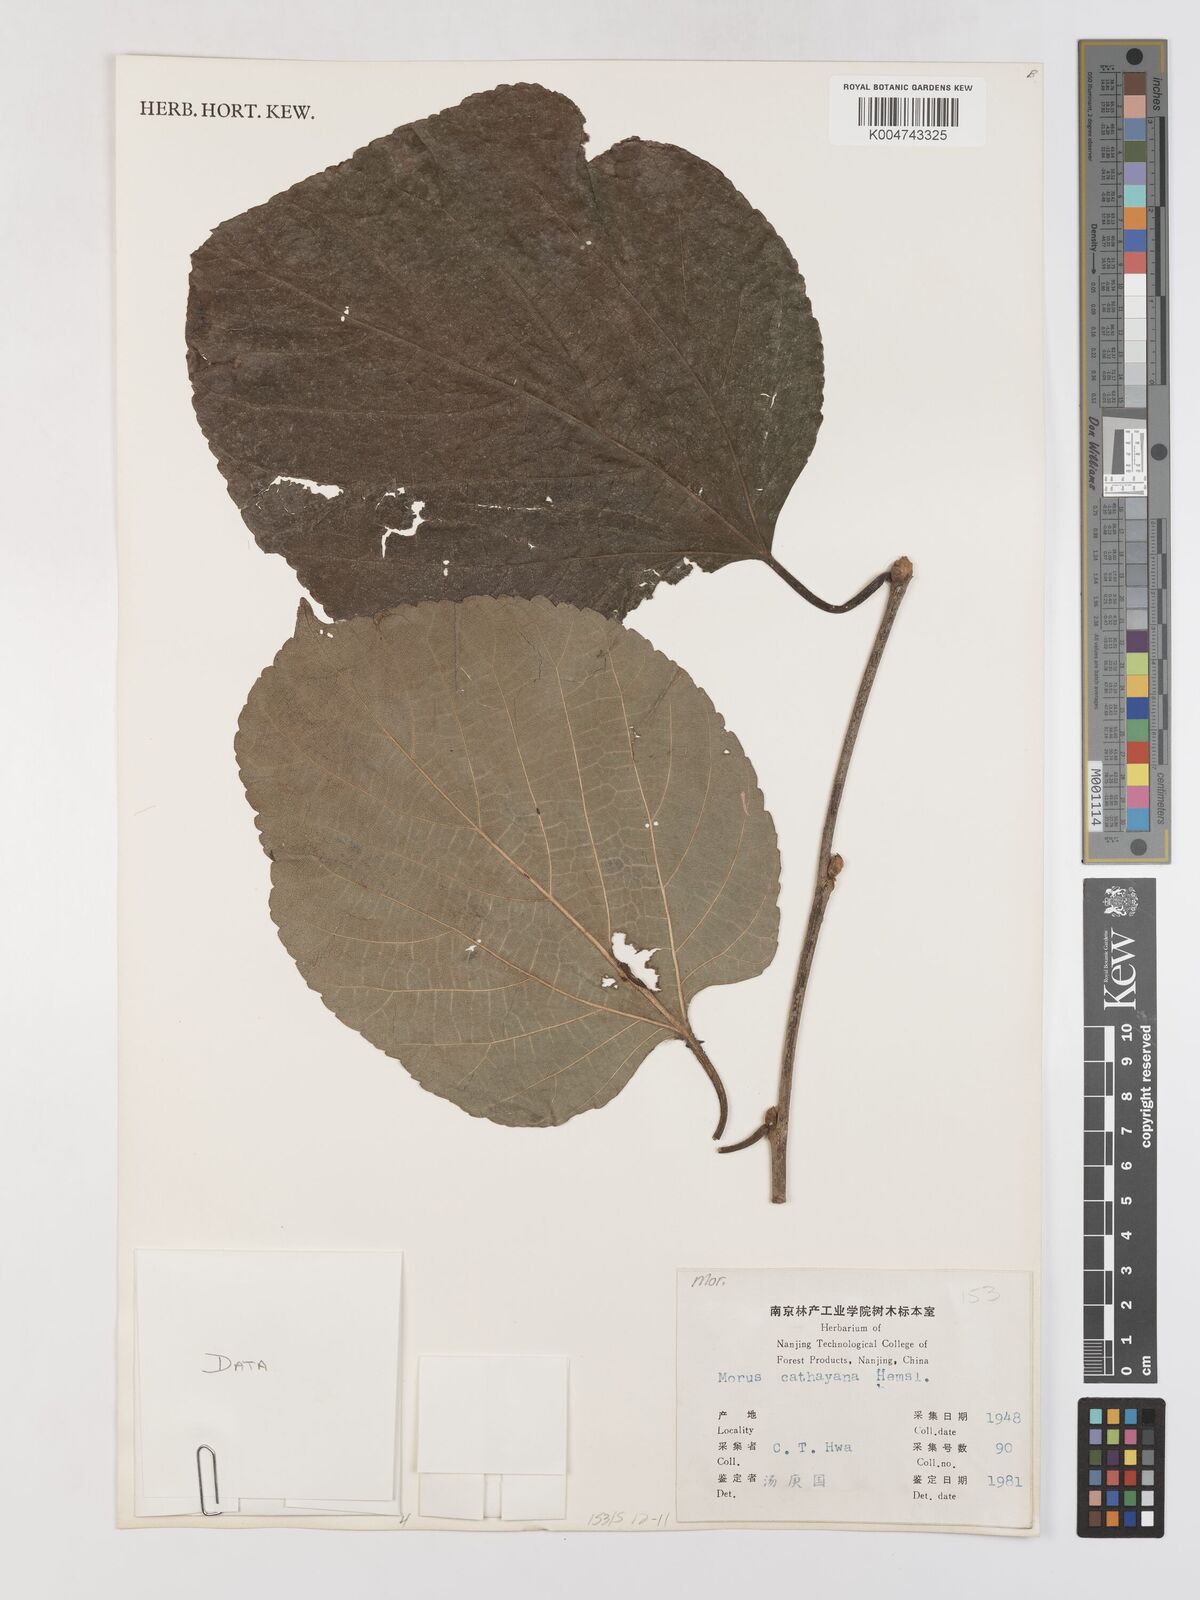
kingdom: Plantae
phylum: Tracheophyta
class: Magnoliopsida
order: Rosales
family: Moraceae
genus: Morus
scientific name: Morus cathayana
